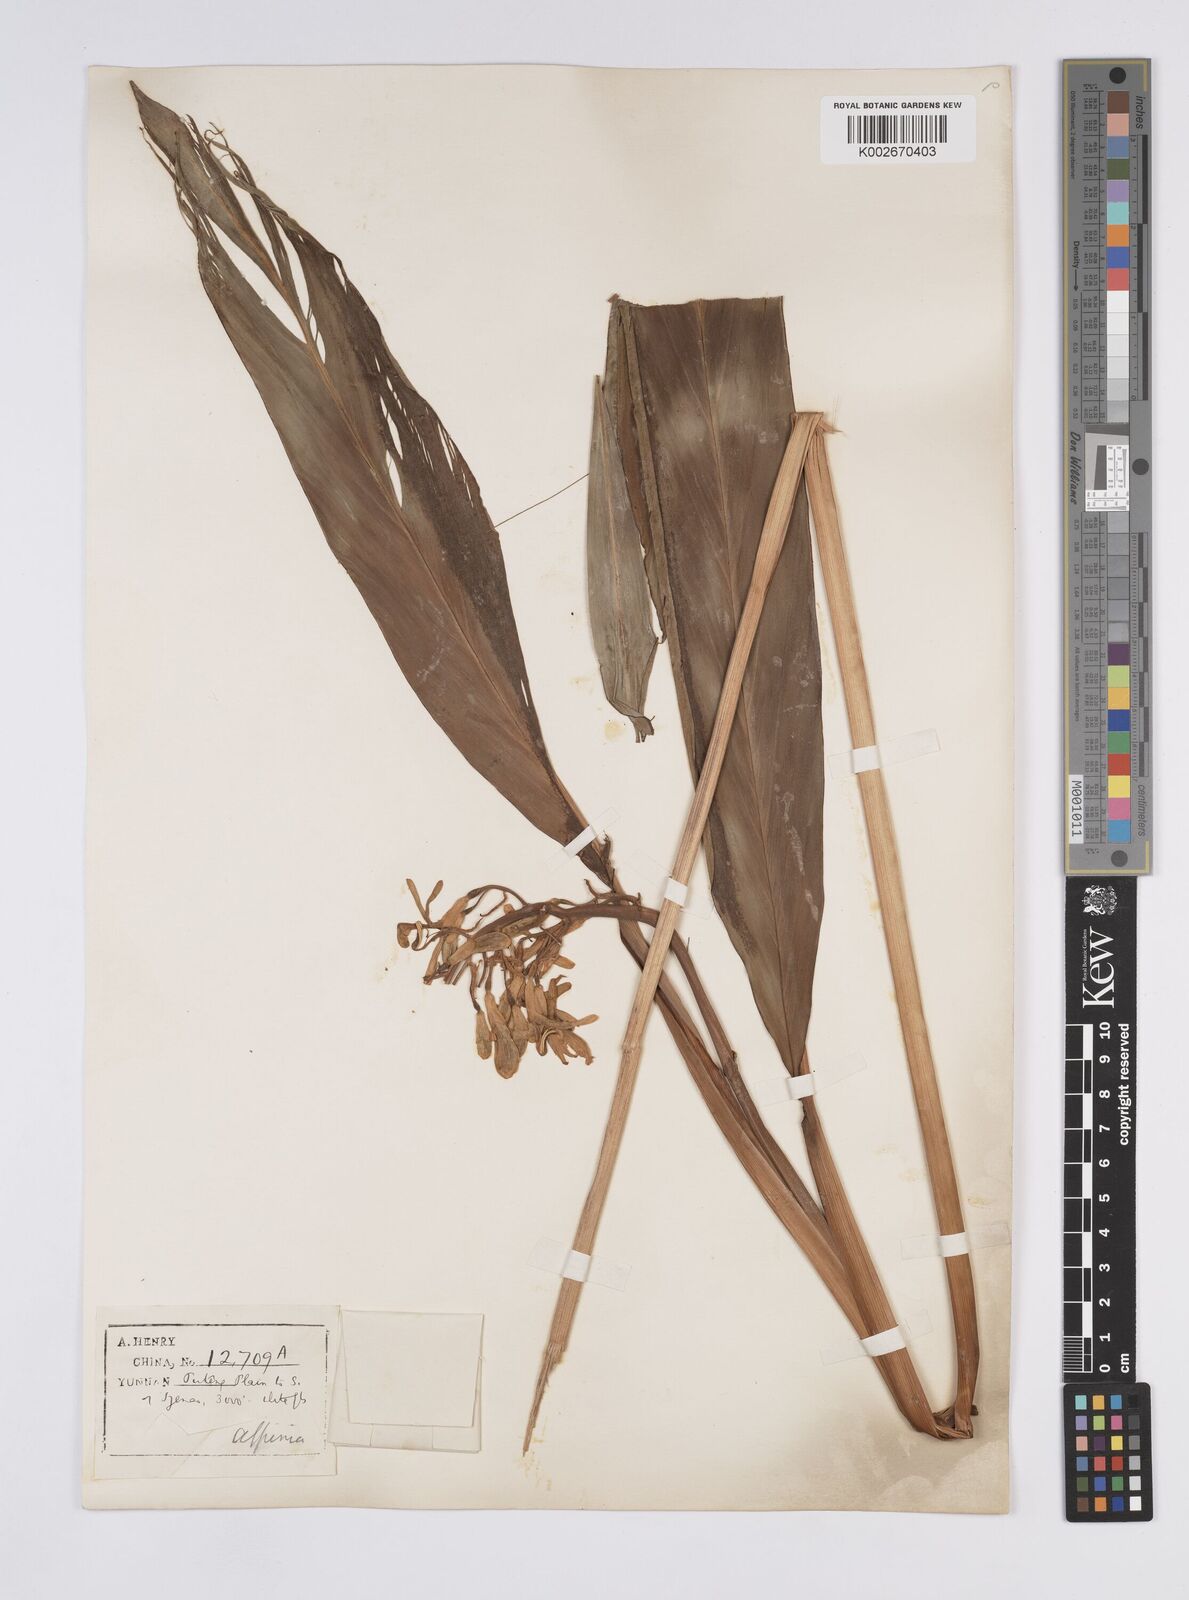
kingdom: Plantae
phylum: Tracheophyta
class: Liliopsida
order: Zingiberales
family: Zingiberaceae
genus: Alpinia
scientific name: Alpinia galanga
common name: Siamese-ginger
